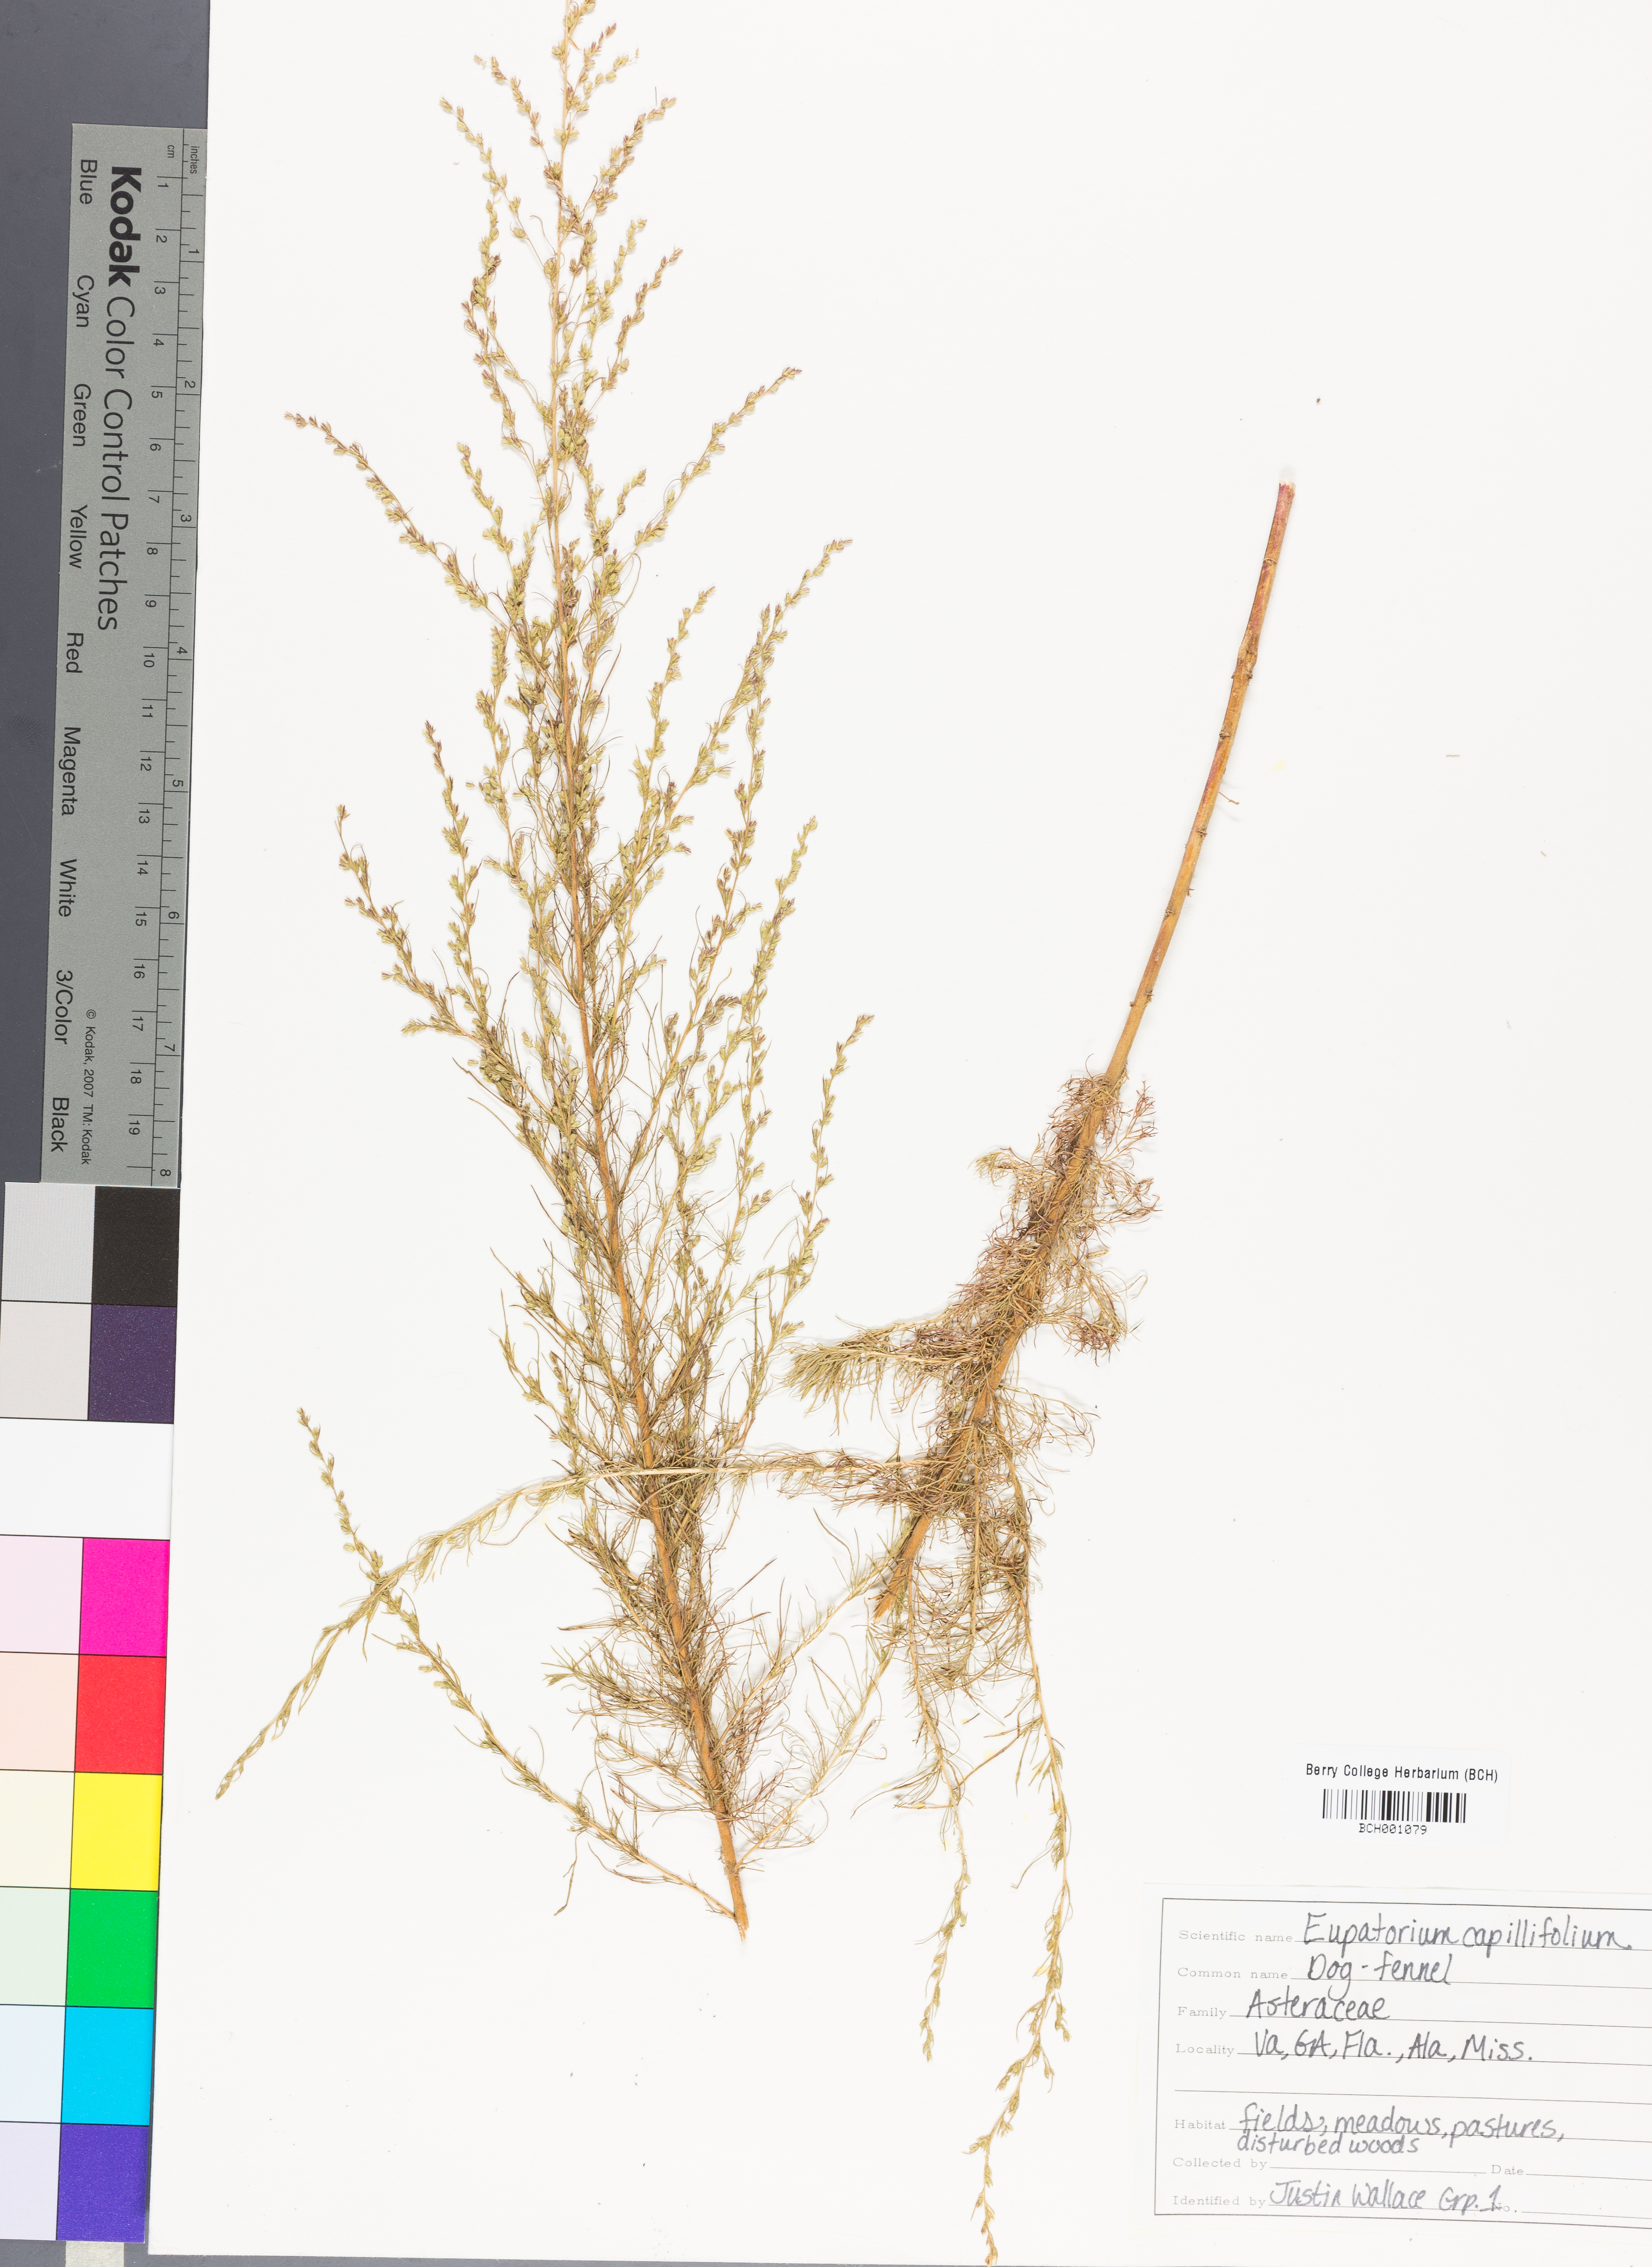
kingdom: Plantae
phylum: Tracheophyta
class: Magnoliopsida
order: Asterales
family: Asteraceae
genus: Eupatorium
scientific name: Eupatorium capillifolium
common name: Dog-fennel
